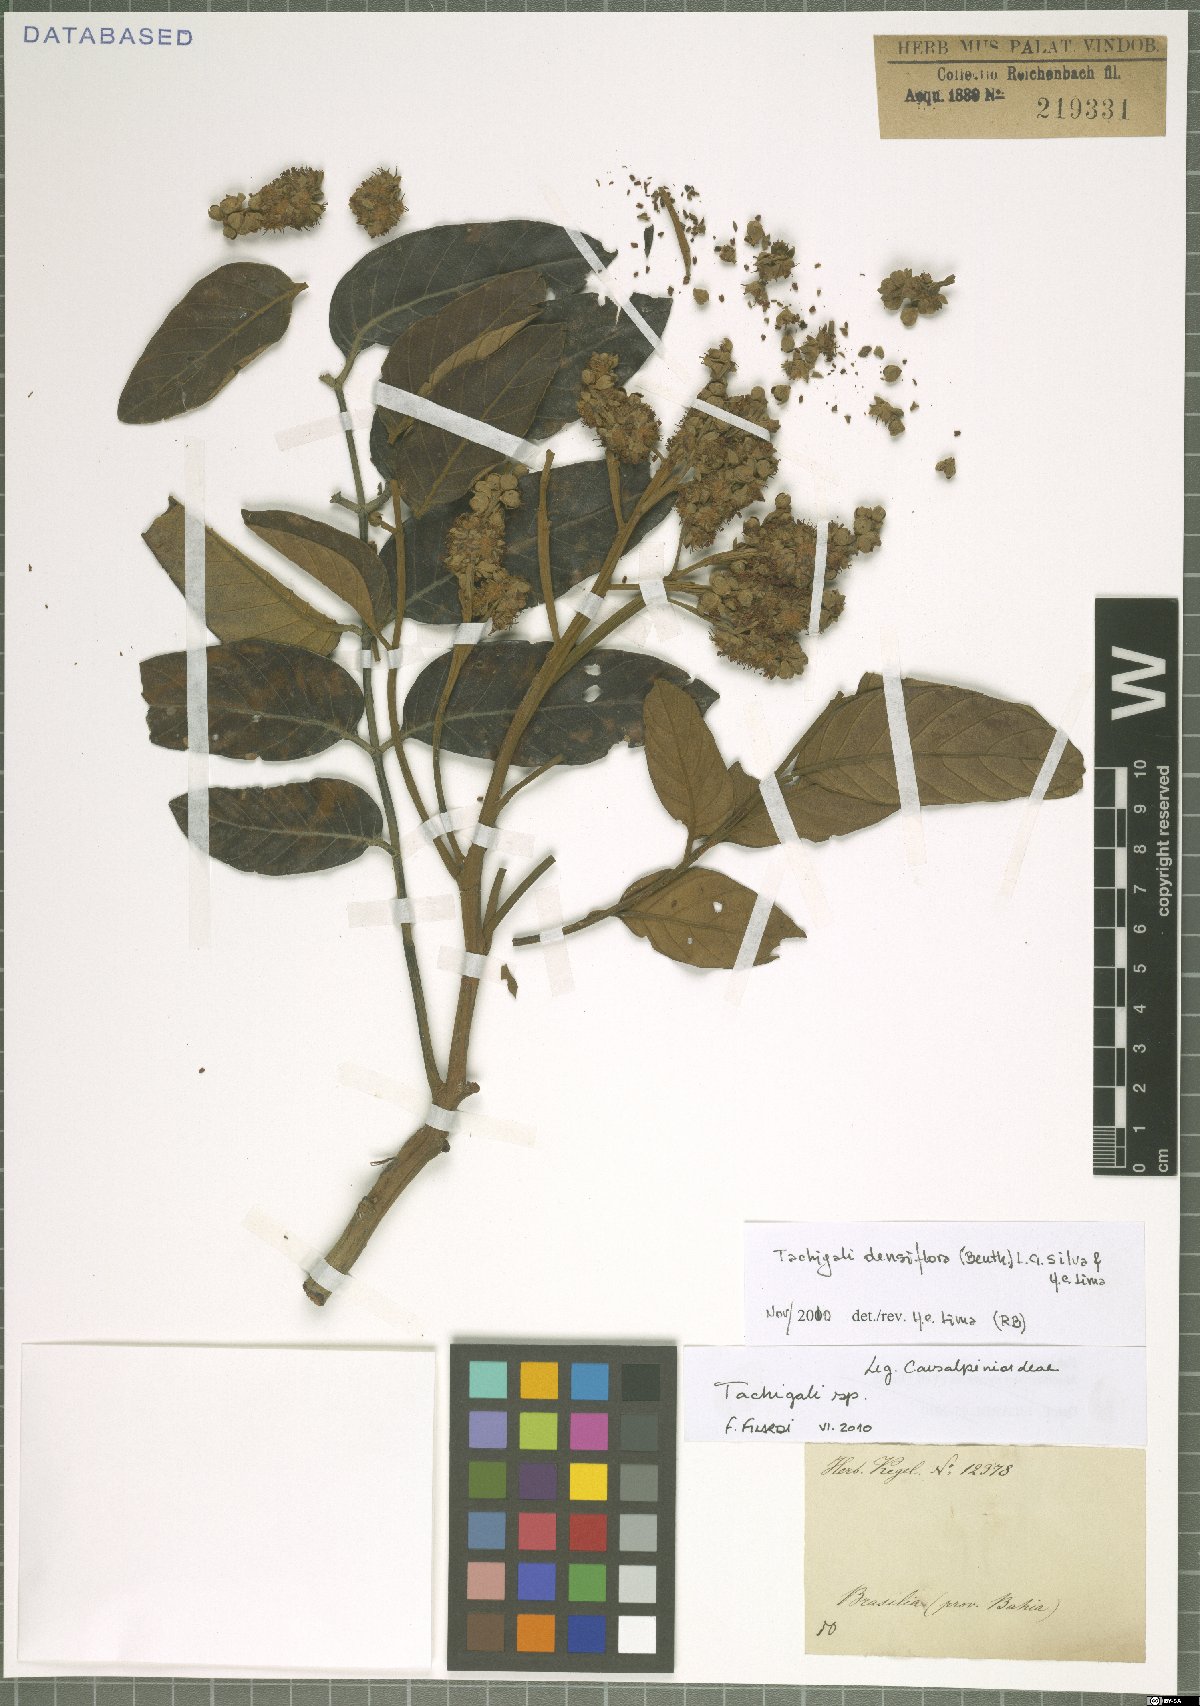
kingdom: Plantae
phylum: Tracheophyta
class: Magnoliopsida
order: Fabales
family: Fabaceae
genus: Tachigali
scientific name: Tachigali densiflora
